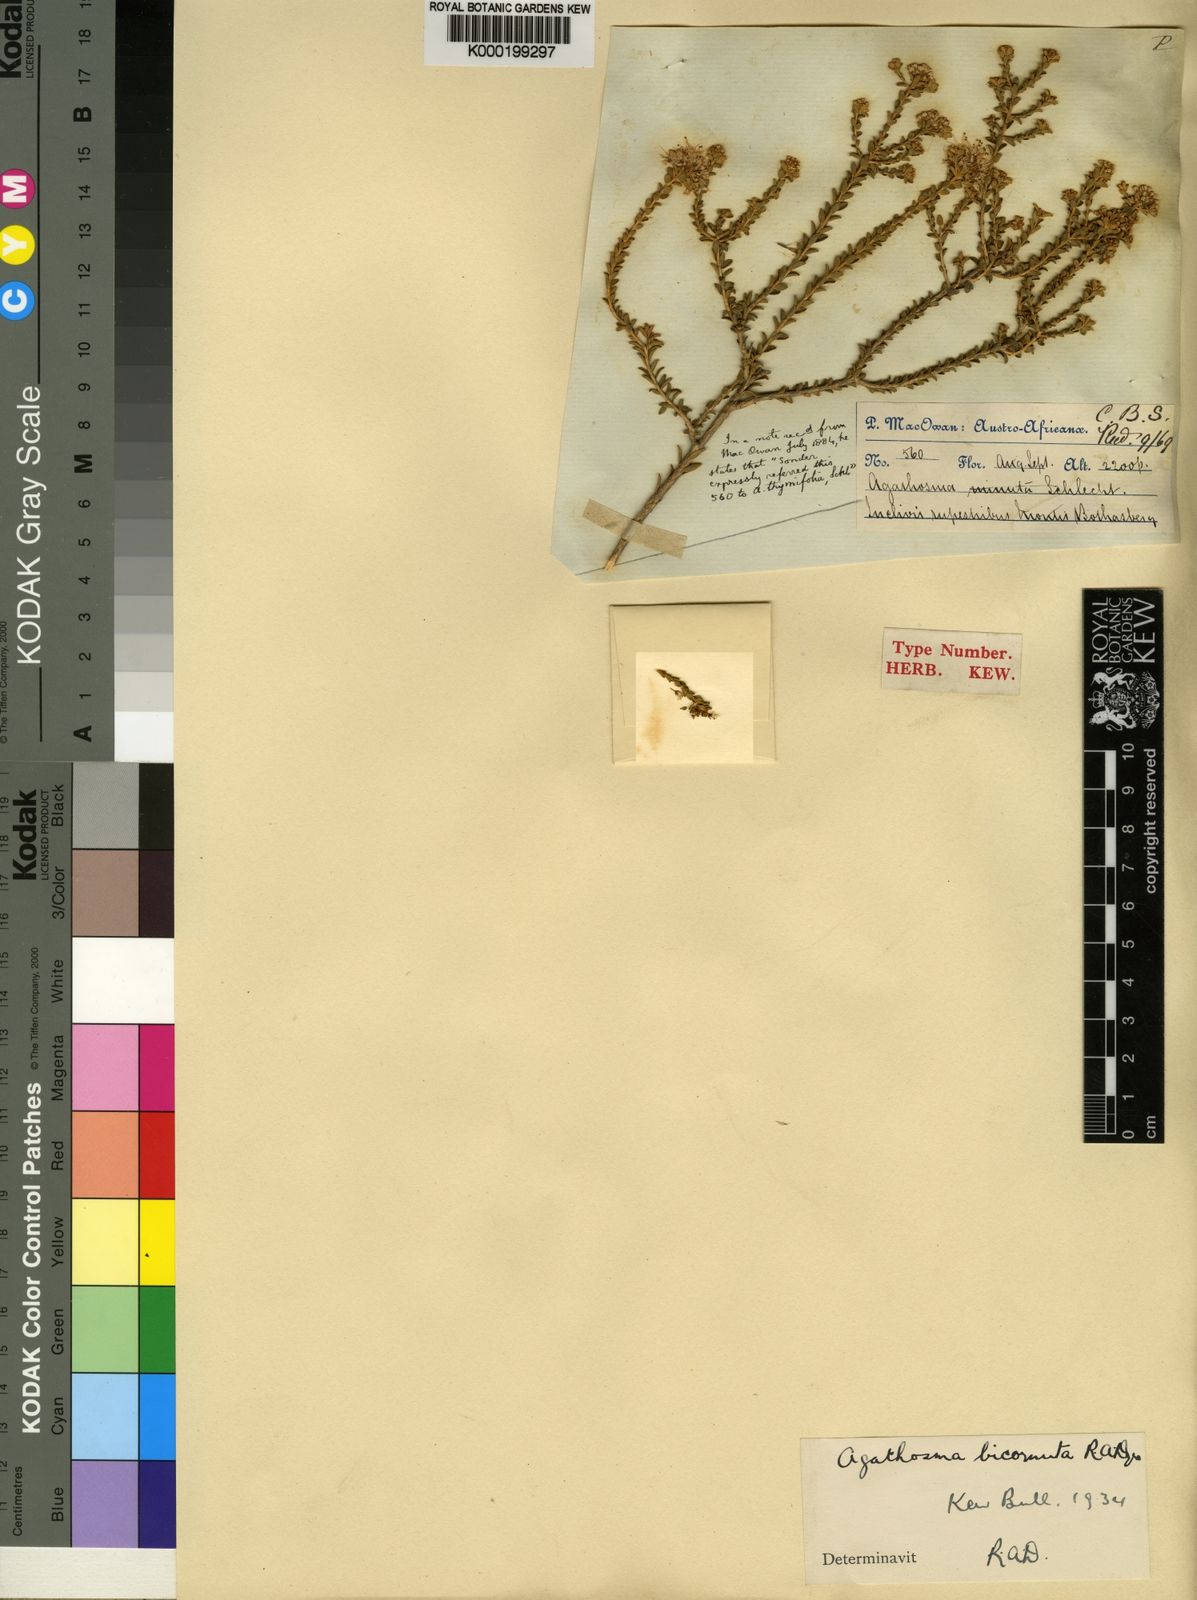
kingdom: Plantae
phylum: Tracheophyta
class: Magnoliopsida
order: Sapindales
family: Rutaceae
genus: Agathosma
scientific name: Agathosma bicornuta
